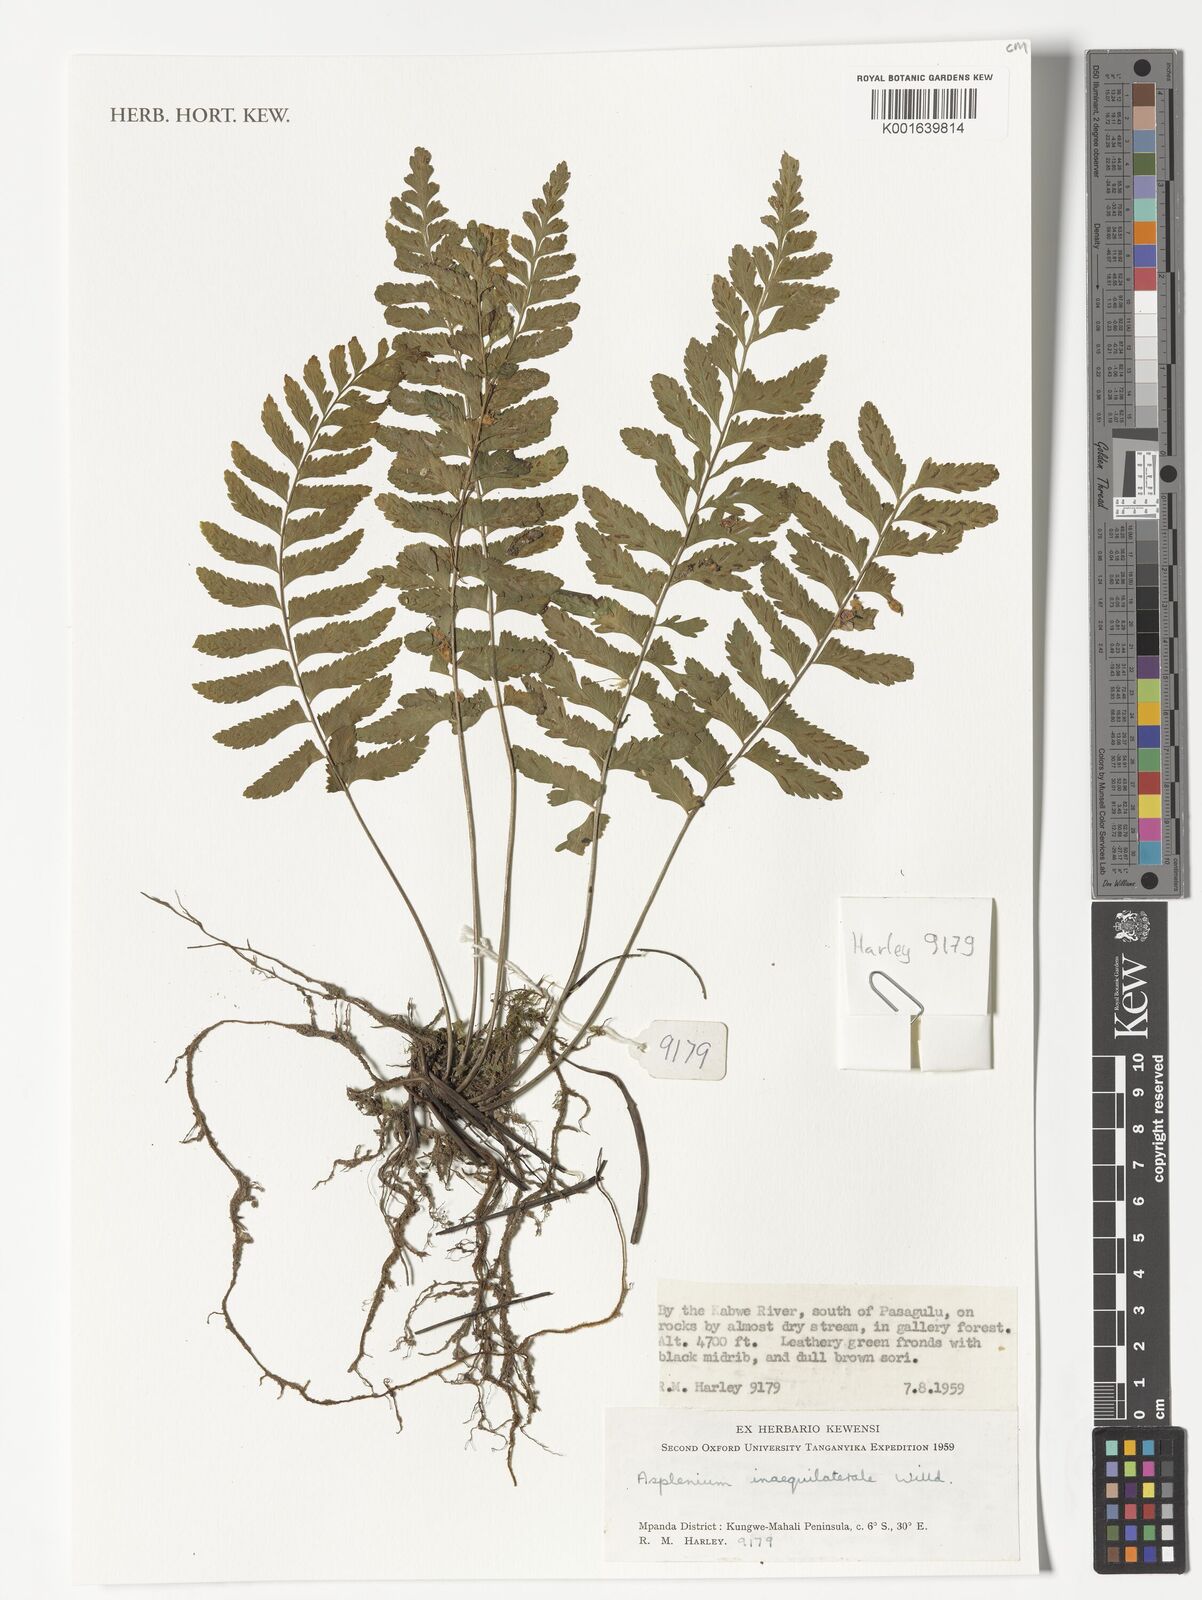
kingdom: Plantae
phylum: Tracheophyta
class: Polypodiopsida
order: Polypodiales
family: Aspleniaceae
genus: Asplenium
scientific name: Asplenium inaequilaterale
